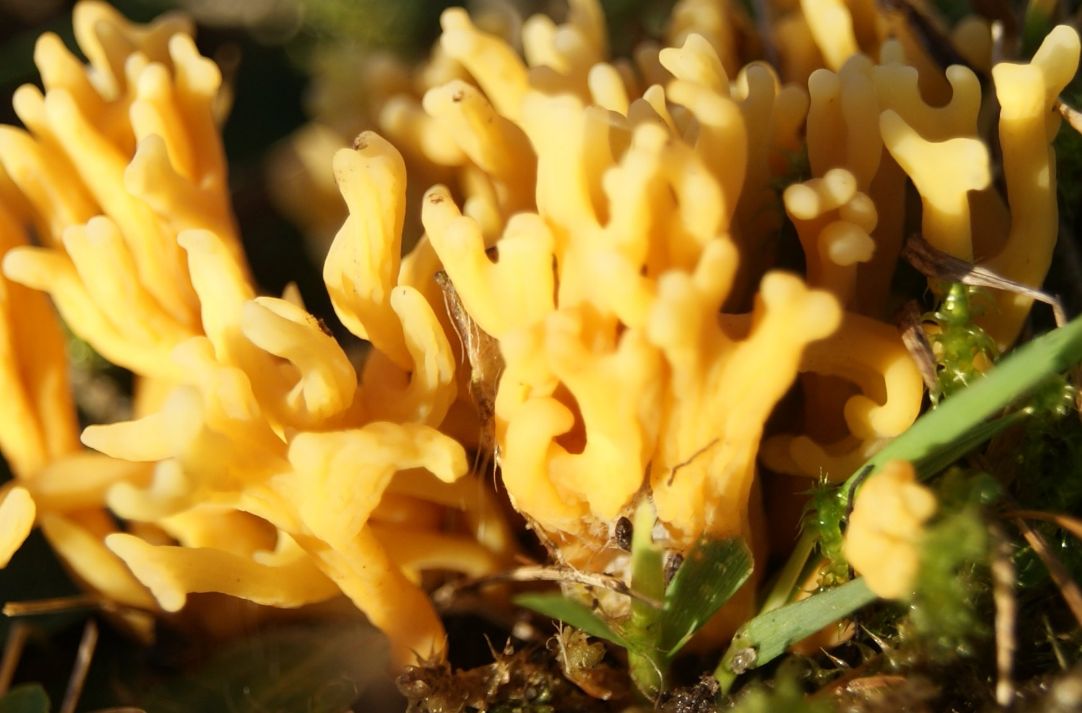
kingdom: Fungi
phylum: Basidiomycota
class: Agaricomycetes
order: Agaricales
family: Clavariaceae
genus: Clavulinopsis
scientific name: Clavulinopsis corniculata
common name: eng-køllesvamp
